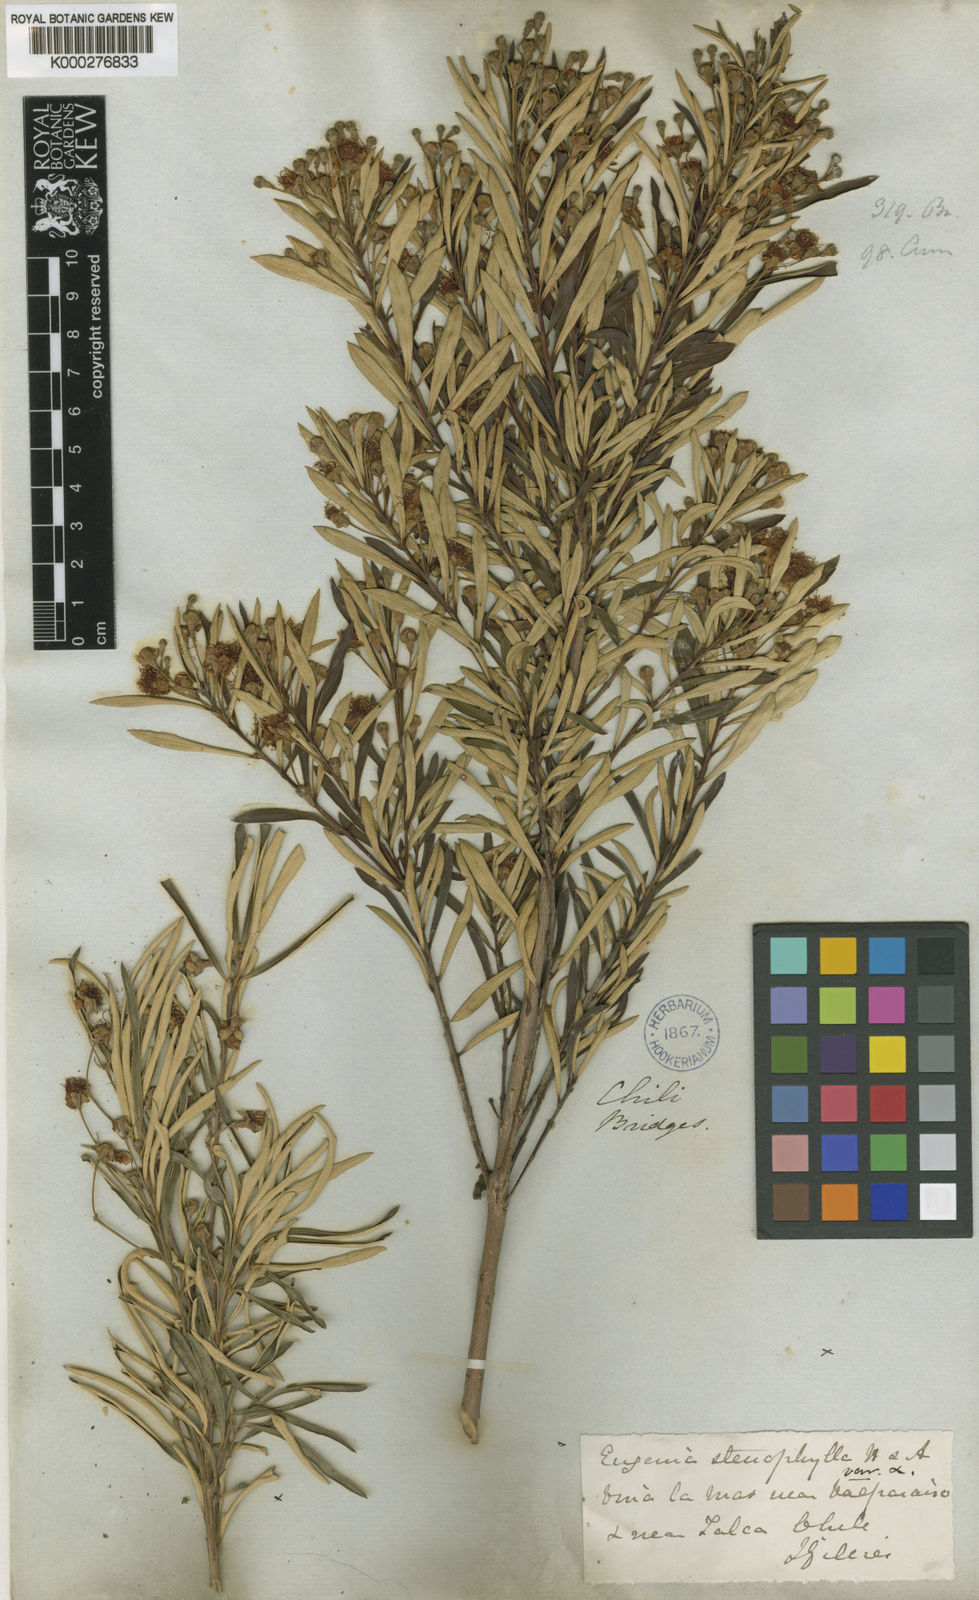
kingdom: Plantae
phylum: Tracheophyta
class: Magnoliopsida
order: Myrtales
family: Myrtaceae
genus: Myrceugenia
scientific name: Myrceugenia lanceolata
